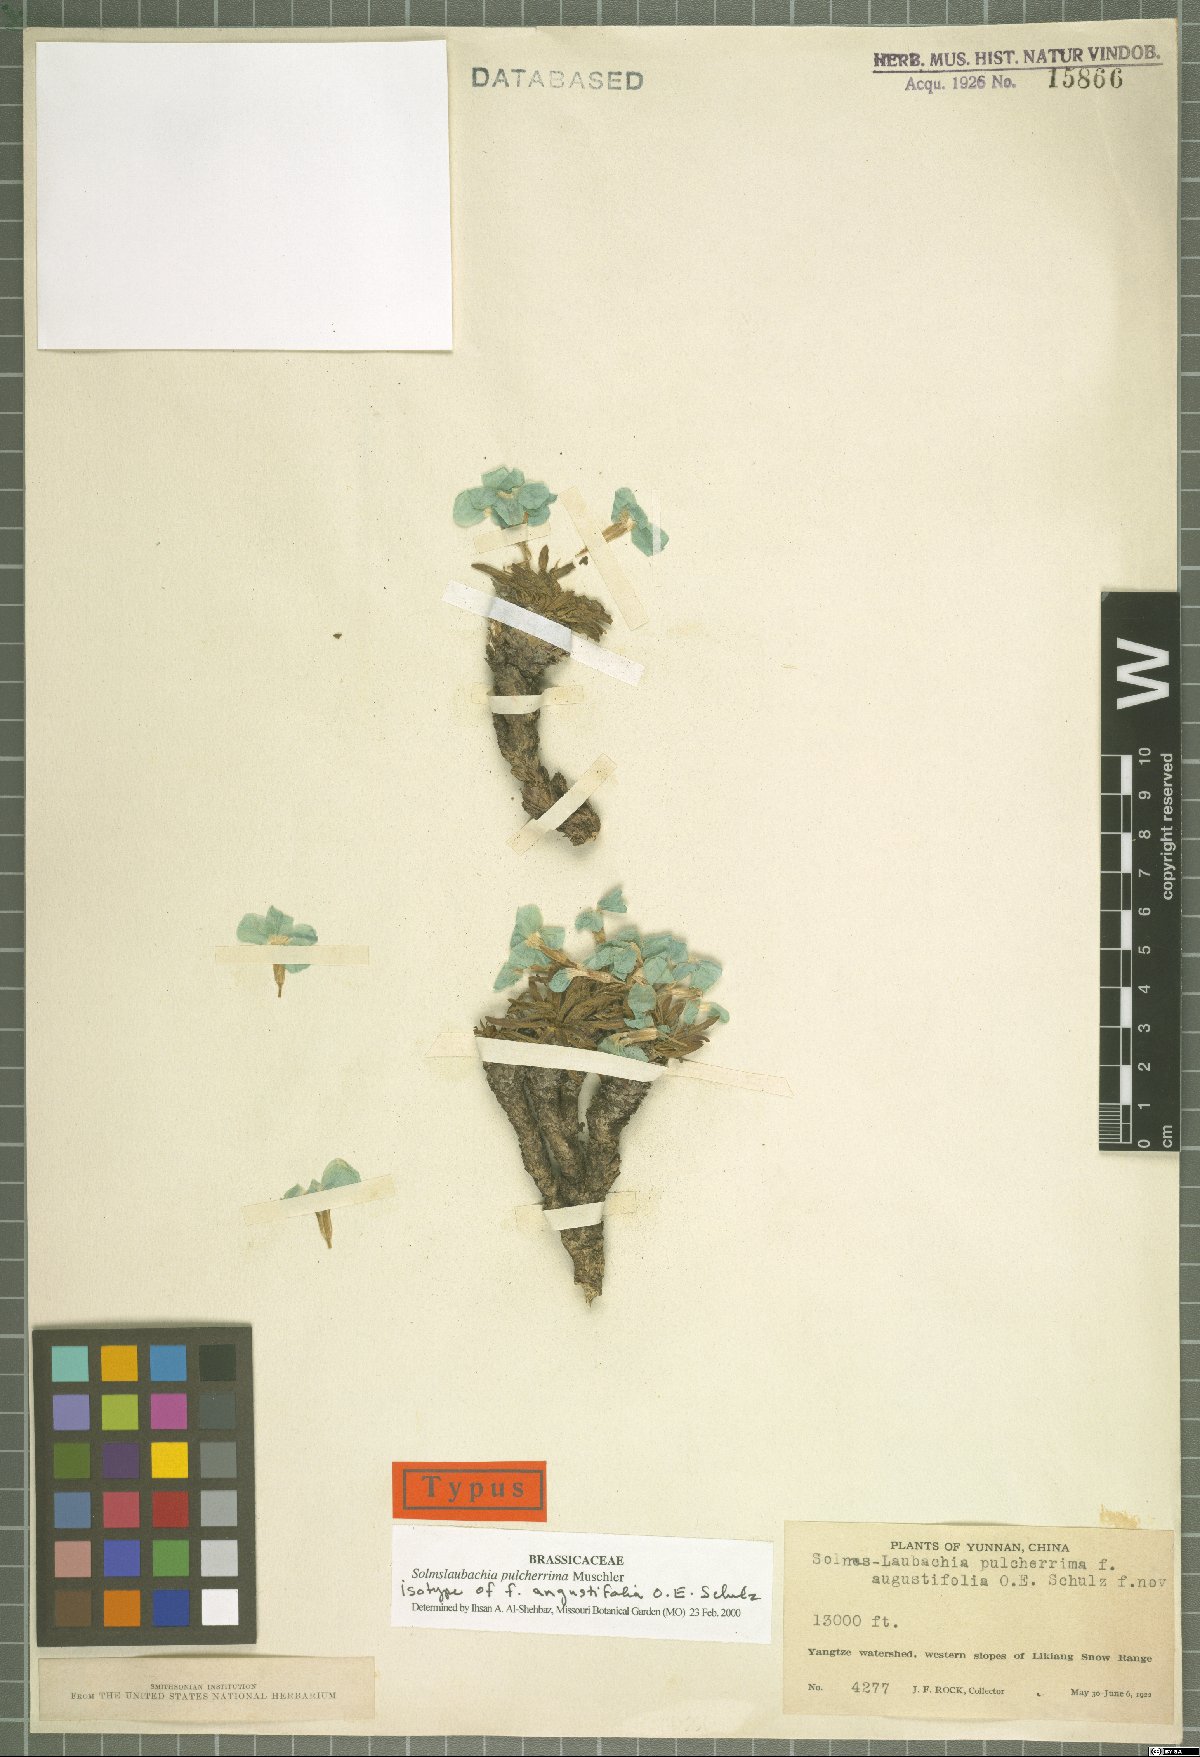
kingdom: Plantae
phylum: Tracheophyta
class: Magnoliopsida
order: Brassicales
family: Brassicaceae
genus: Solms-Laubachia
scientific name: Solms-Laubachia pulcherrima
